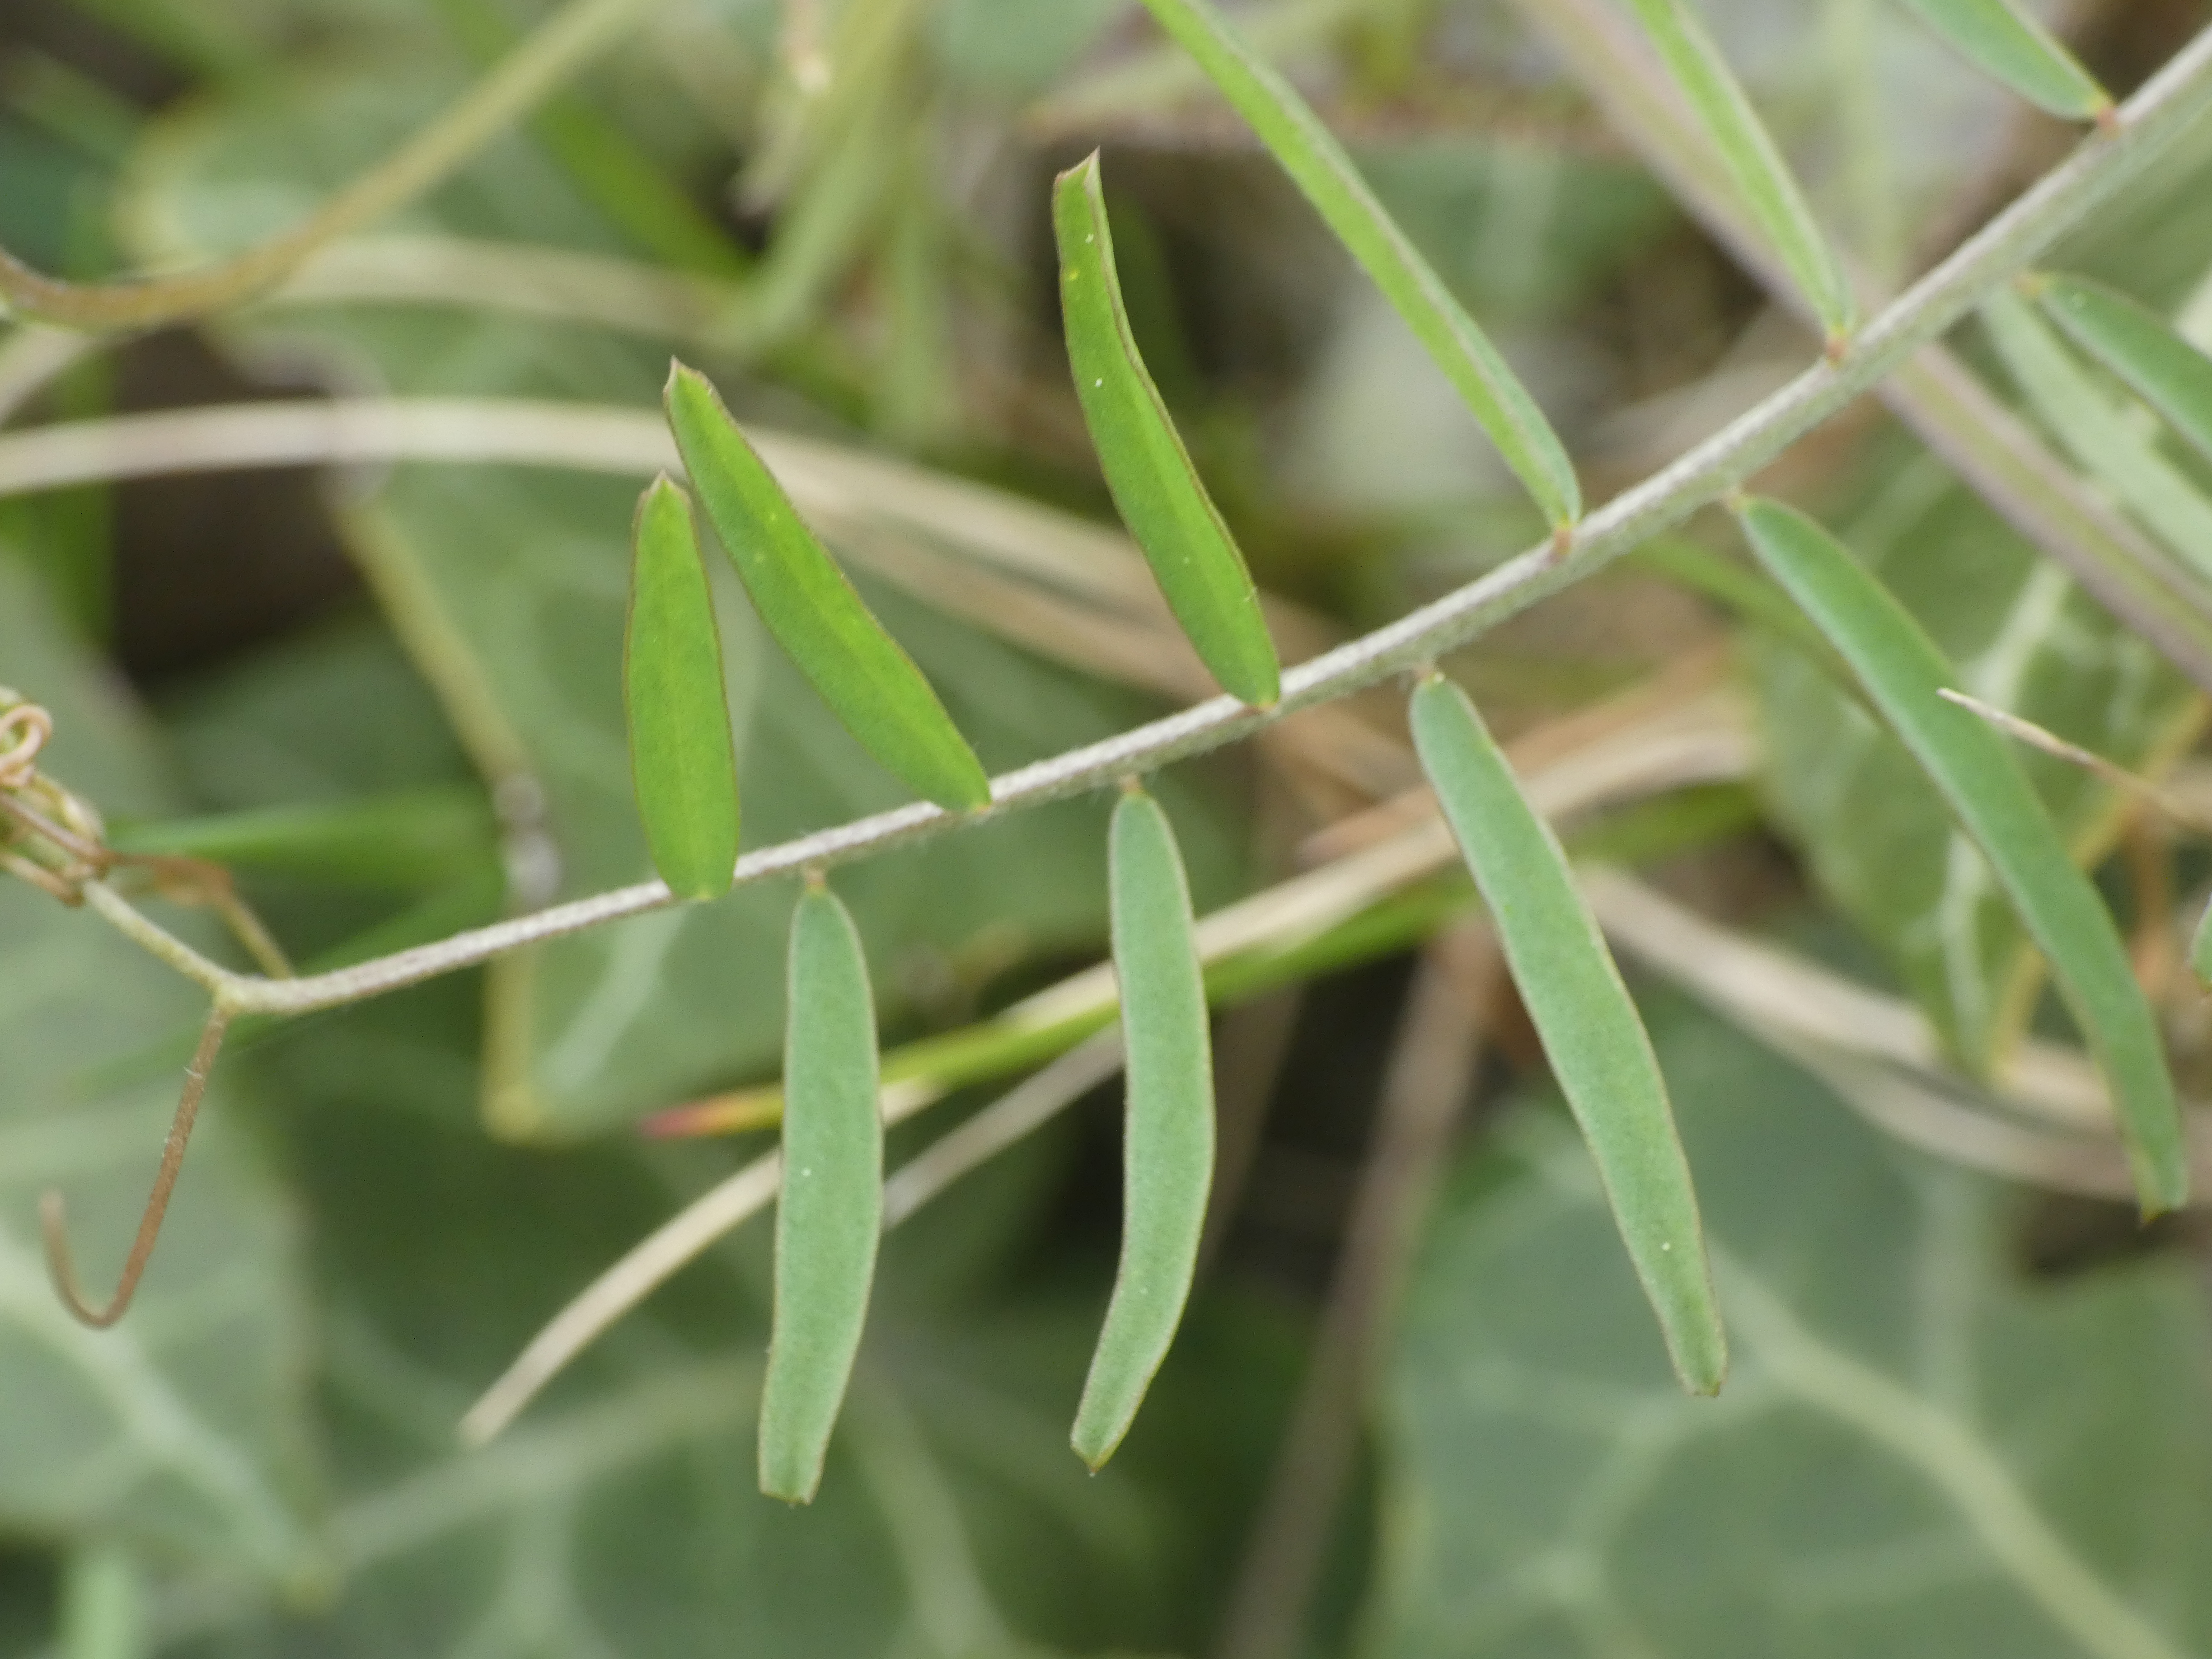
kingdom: Plantae
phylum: Tracheophyta
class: Magnoliopsida
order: Fabales
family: Fabaceae
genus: Vicia
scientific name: Vicia hirsuta
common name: Tofrøet vikke
